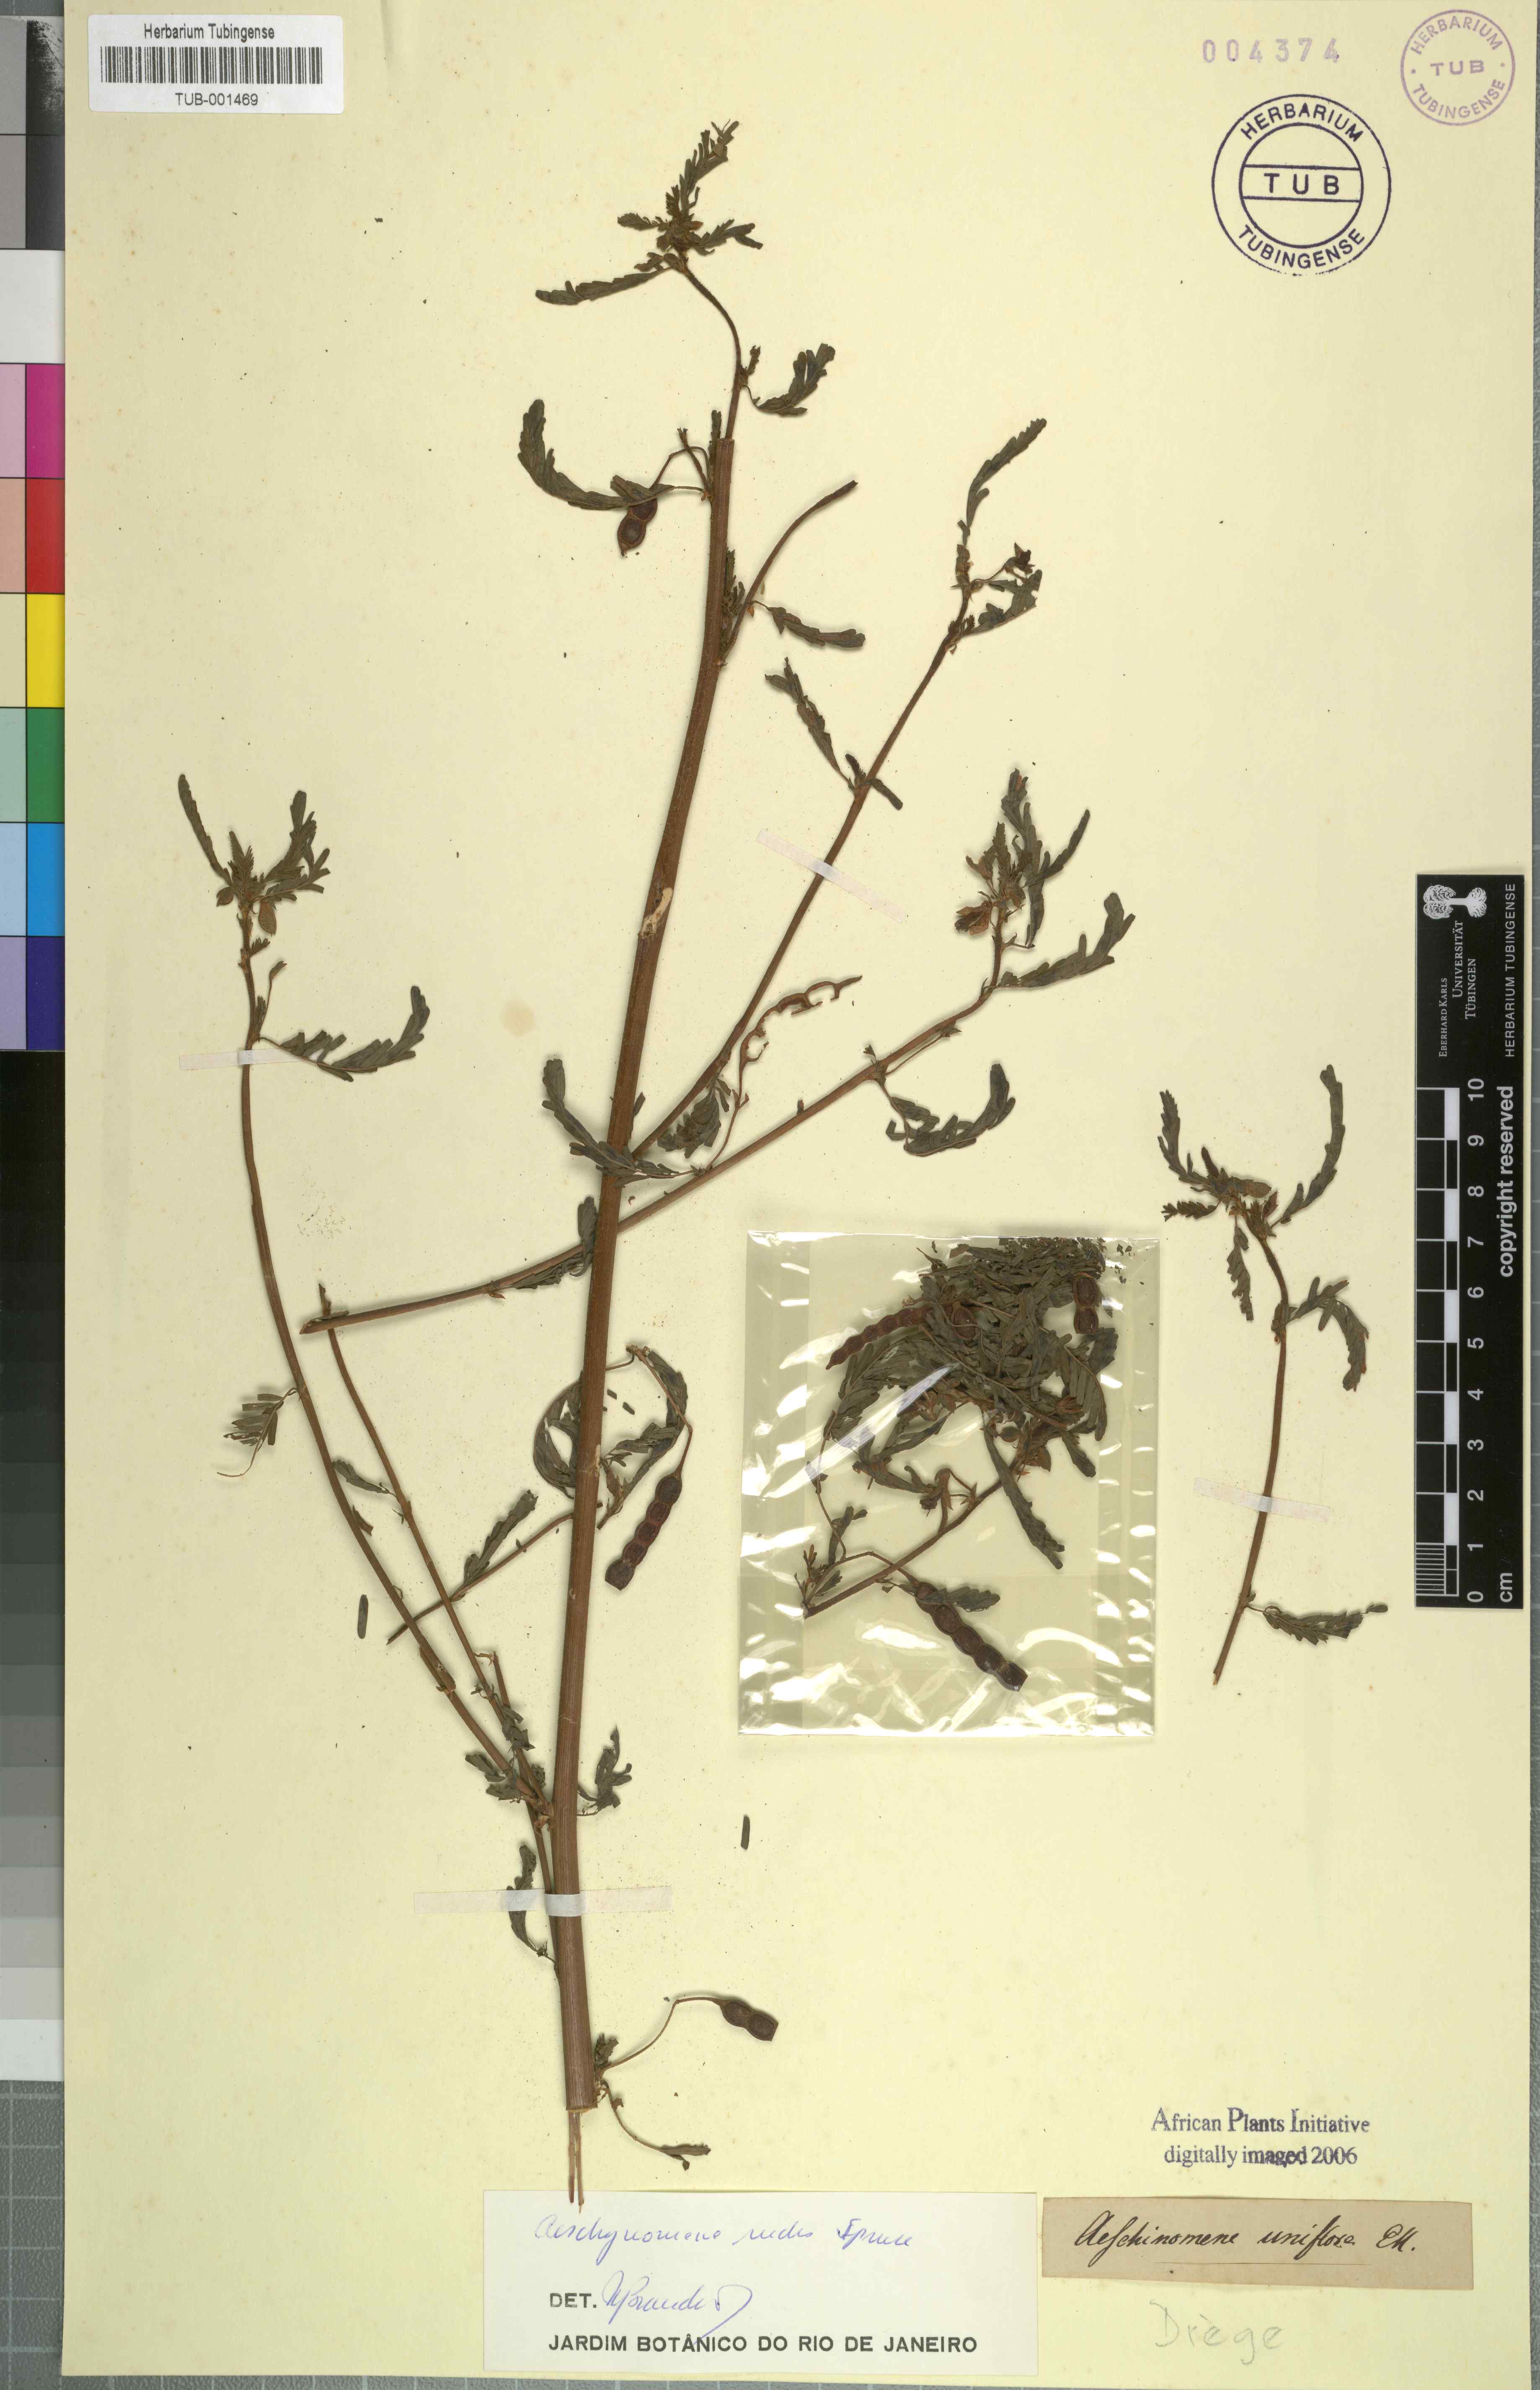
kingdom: Plantae
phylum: Tracheophyta
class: Magnoliopsida
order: Fabales
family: Fabaceae
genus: Aeschynomene
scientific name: Aeschynomene rudis
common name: Rough joint-vetch
